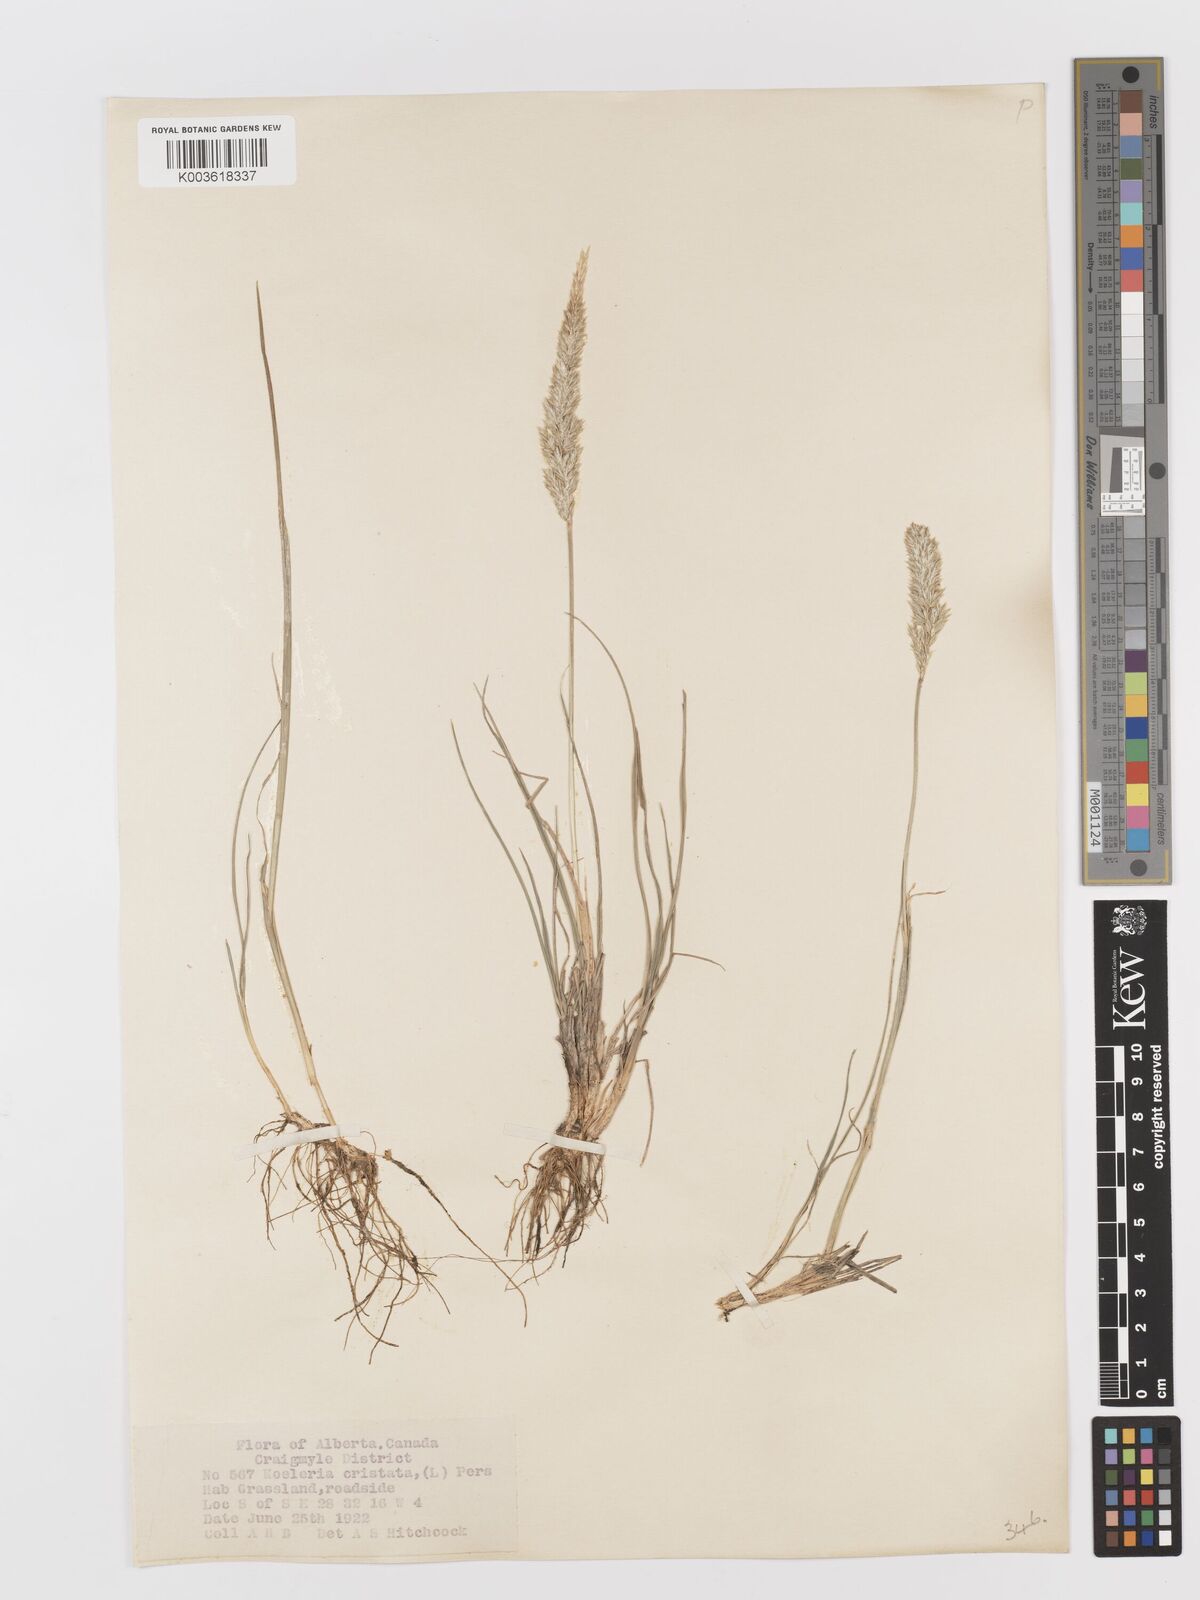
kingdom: Plantae
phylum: Tracheophyta
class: Liliopsida
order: Poales
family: Poaceae
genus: Koeleria
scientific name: Koeleria
